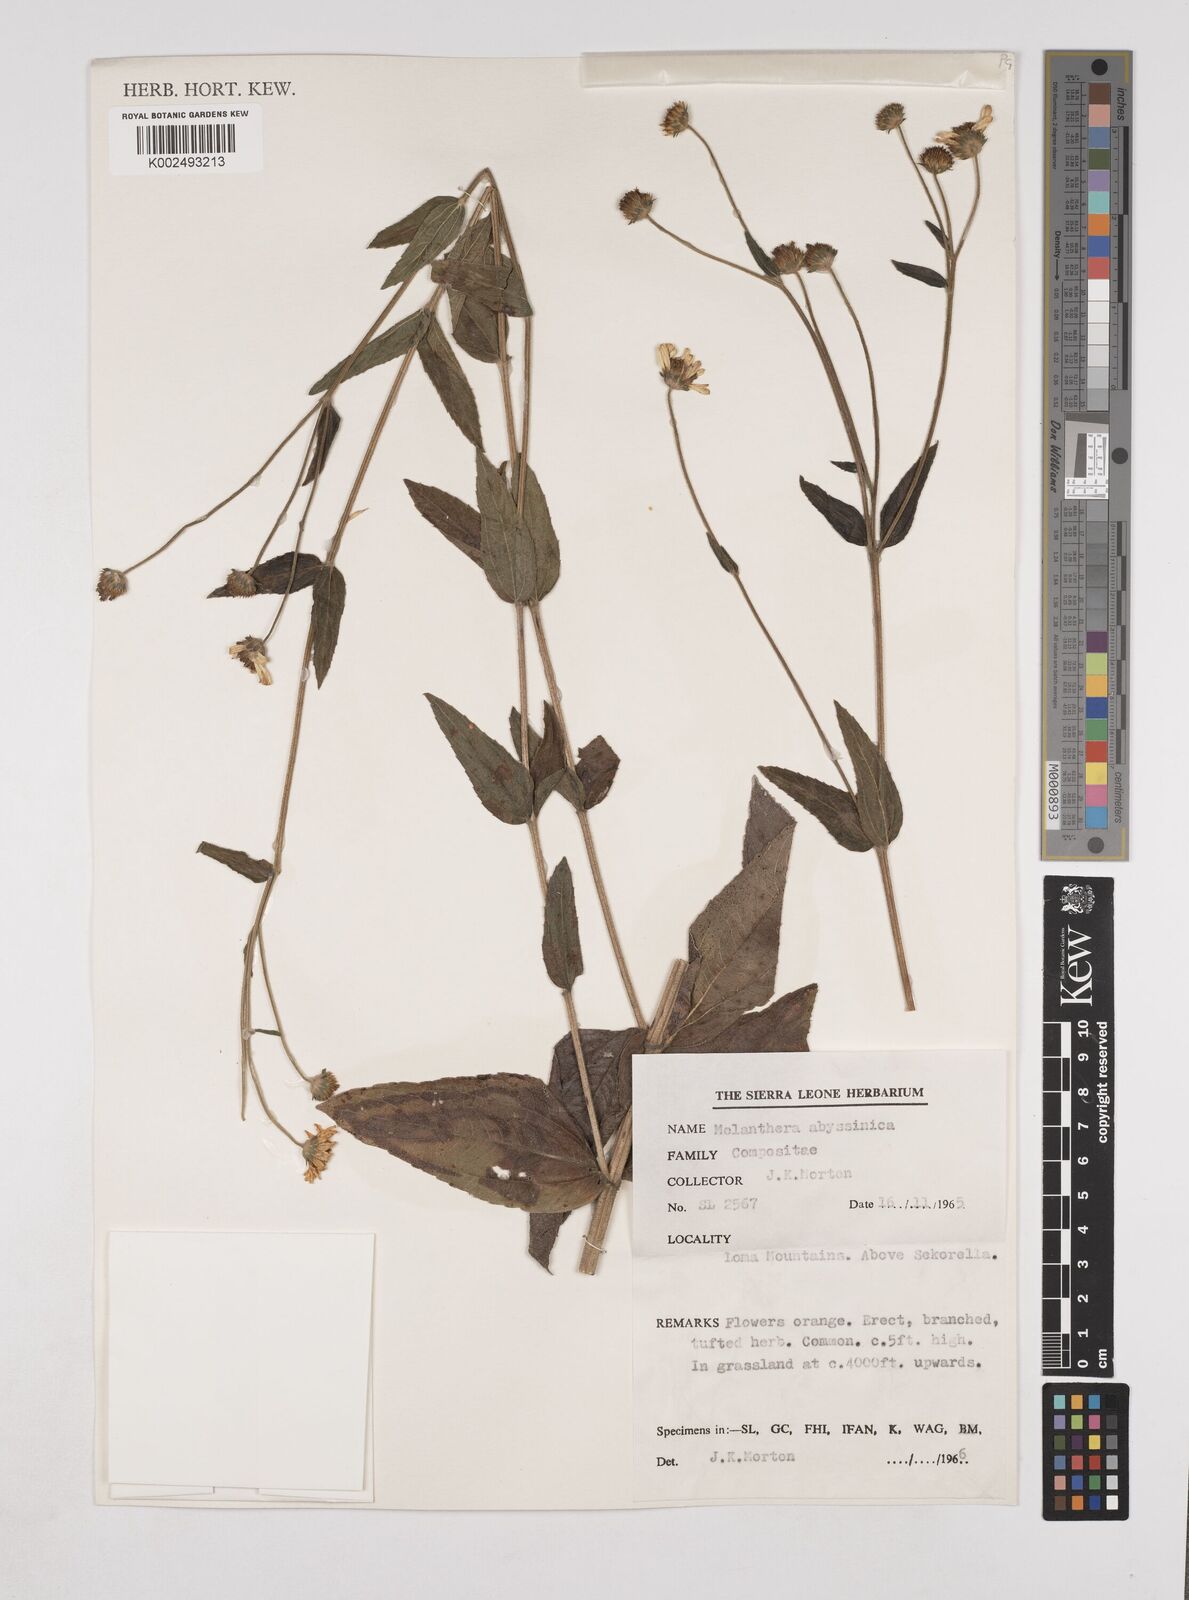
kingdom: Plantae
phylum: Tracheophyta
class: Magnoliopsida
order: Asterales
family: Asteraceae
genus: Lipotriche
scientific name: Lipotriche abyssinica
